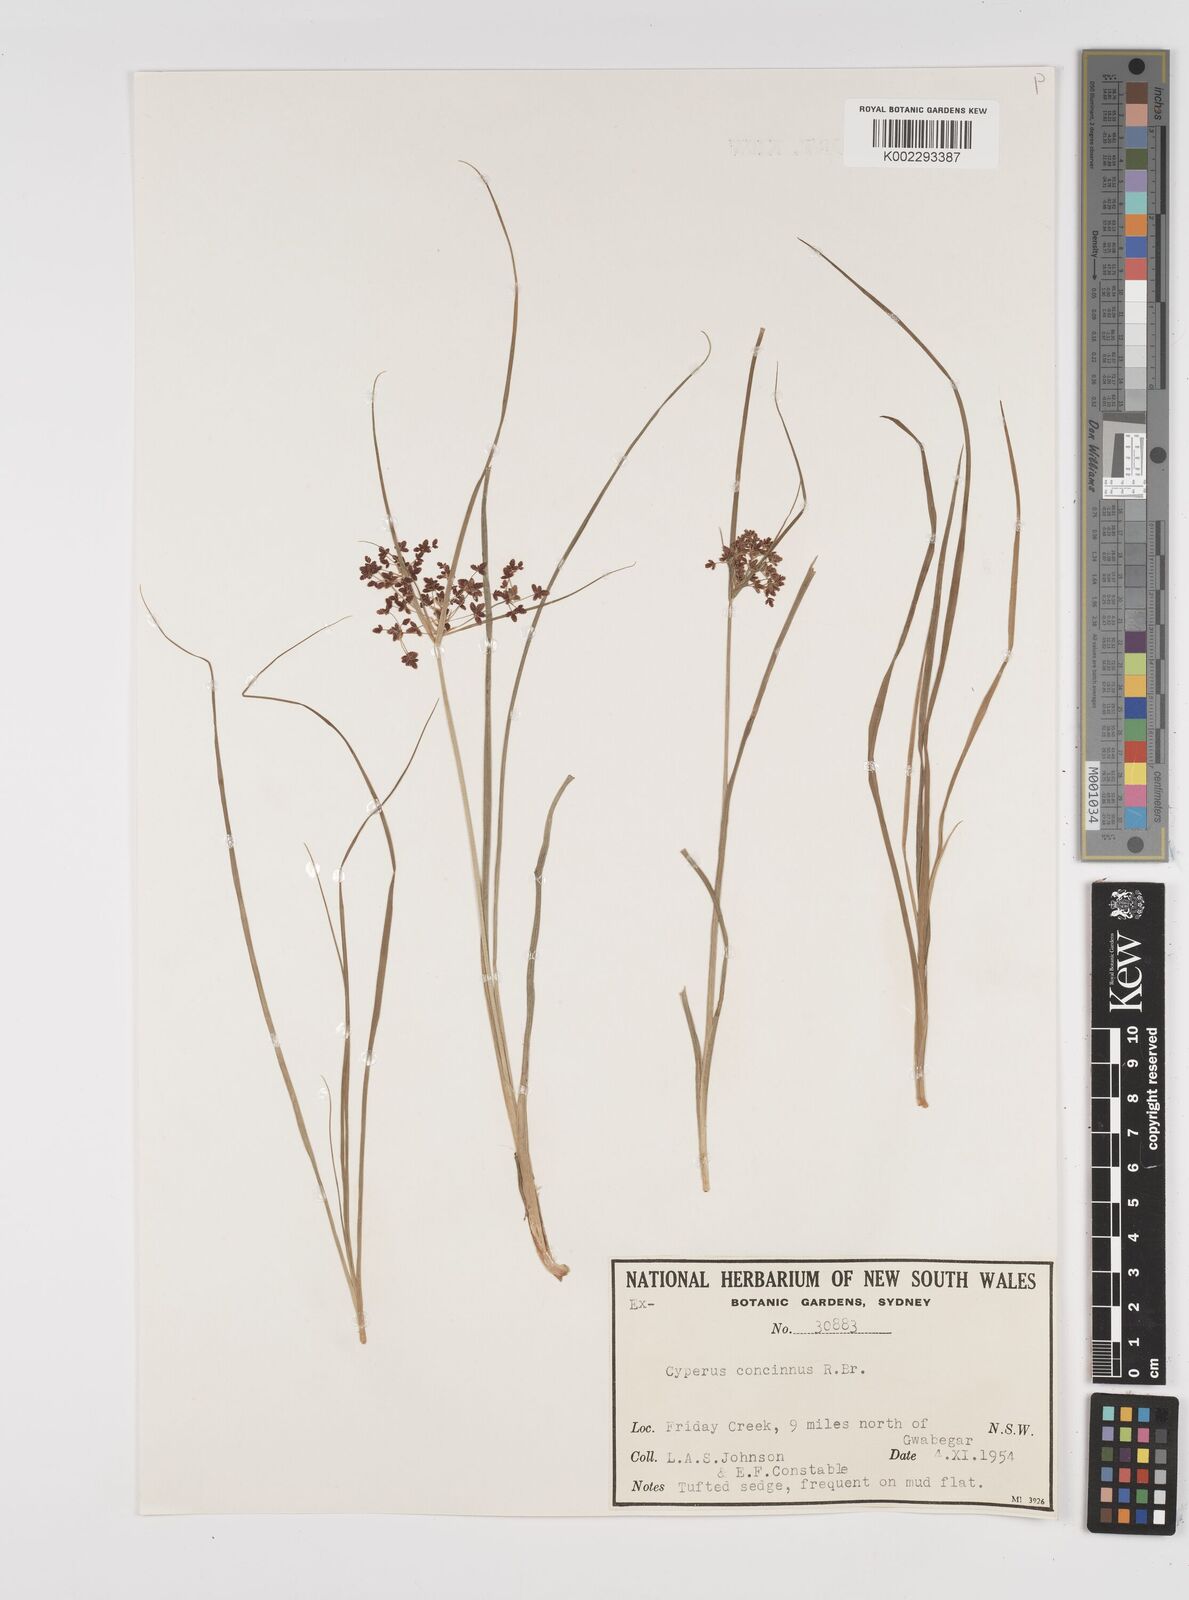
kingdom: Plantae
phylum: Tracheophyta
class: Liliopsida
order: Poales
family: Cyperaceae
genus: Cyperus
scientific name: Cyperus concinnus
